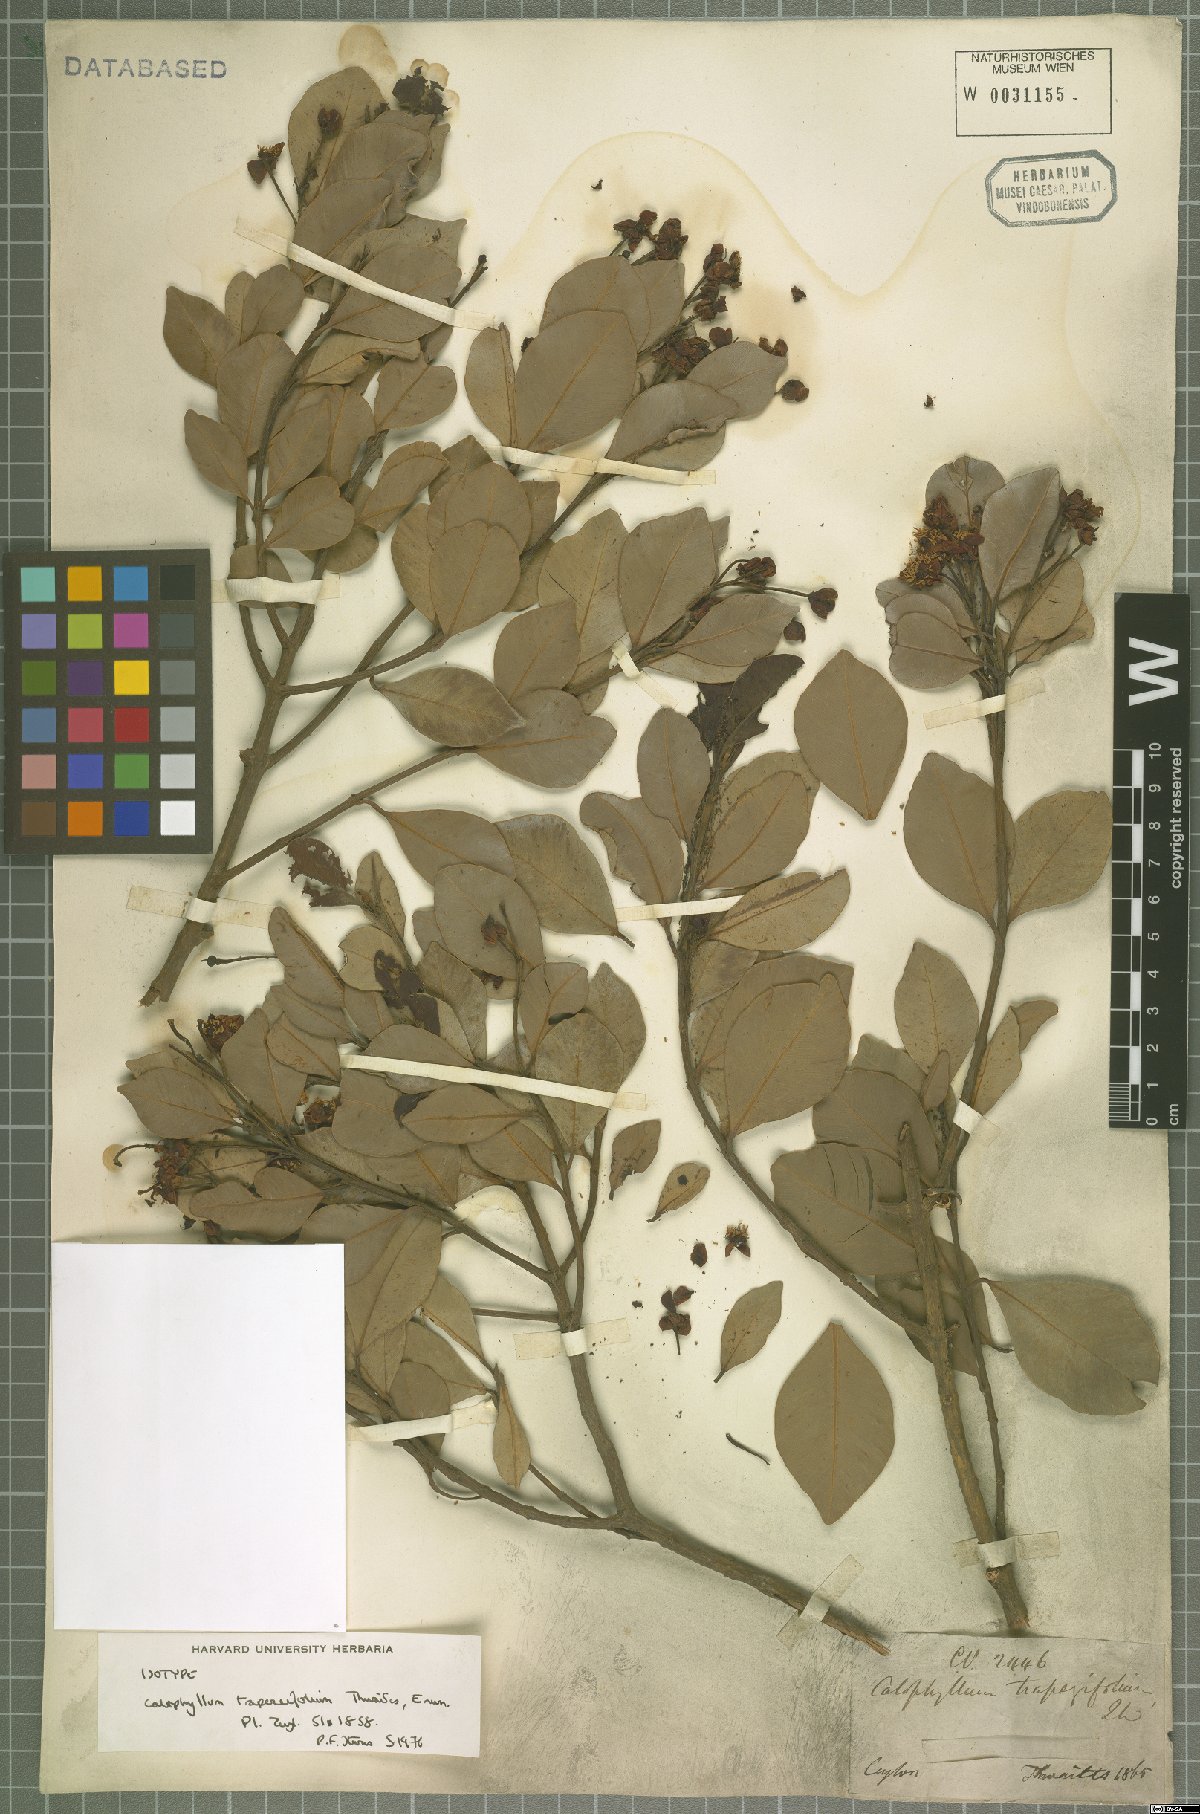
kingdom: Plantae
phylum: Tracheophyta
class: Magnoliopsida
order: Malpighiales
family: Calophyllaceae
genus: Calophyllum
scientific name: Calophyllum trapezifolium
